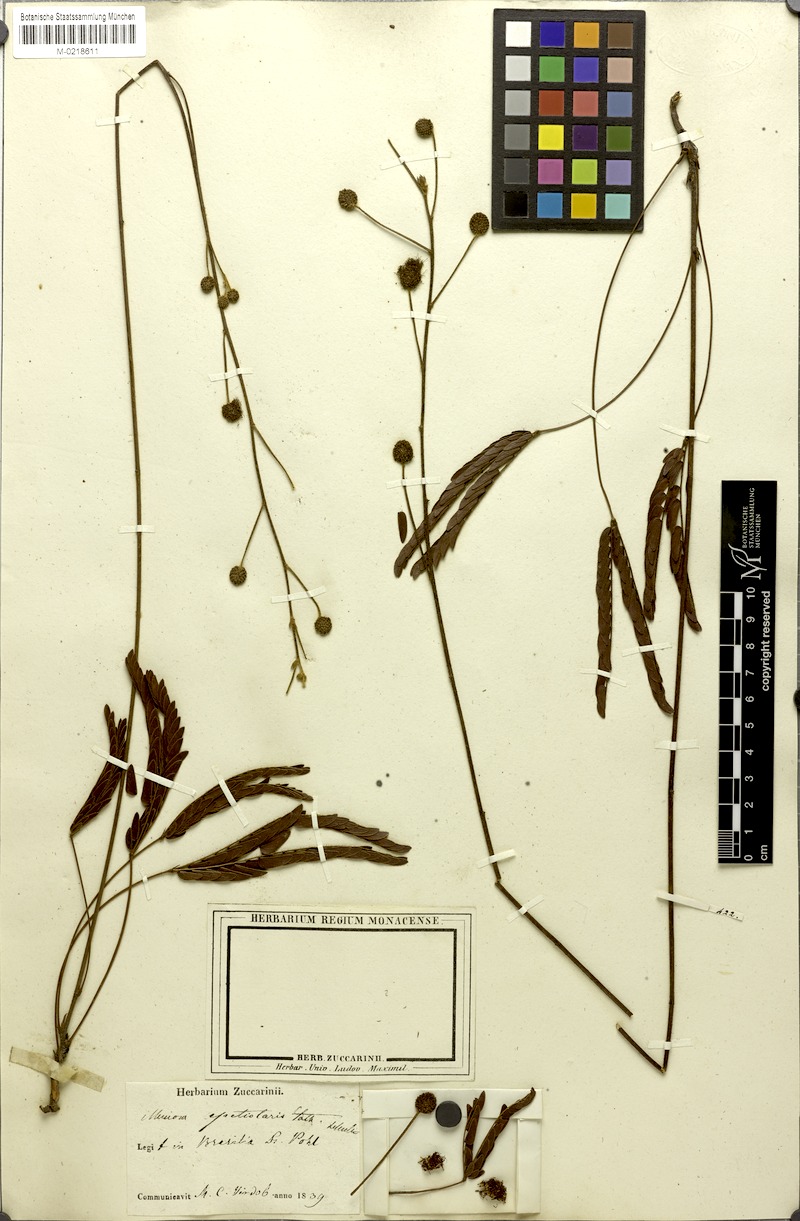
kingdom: Plantae
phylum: Tracheophyta
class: Magnoliopsida
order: Fabales
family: Fabaceae
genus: Mimosa
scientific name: Mimosa petiolaris
